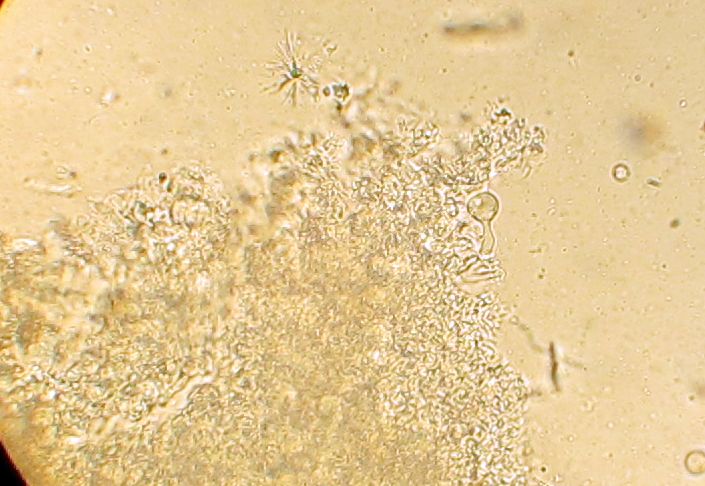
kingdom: Fungi
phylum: Basidiomycota
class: Agaricomycetes
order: Hymenochaetales
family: Rickenellaceae
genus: Resinicium
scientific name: Resinicium bicolor
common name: almindelig vokstand
